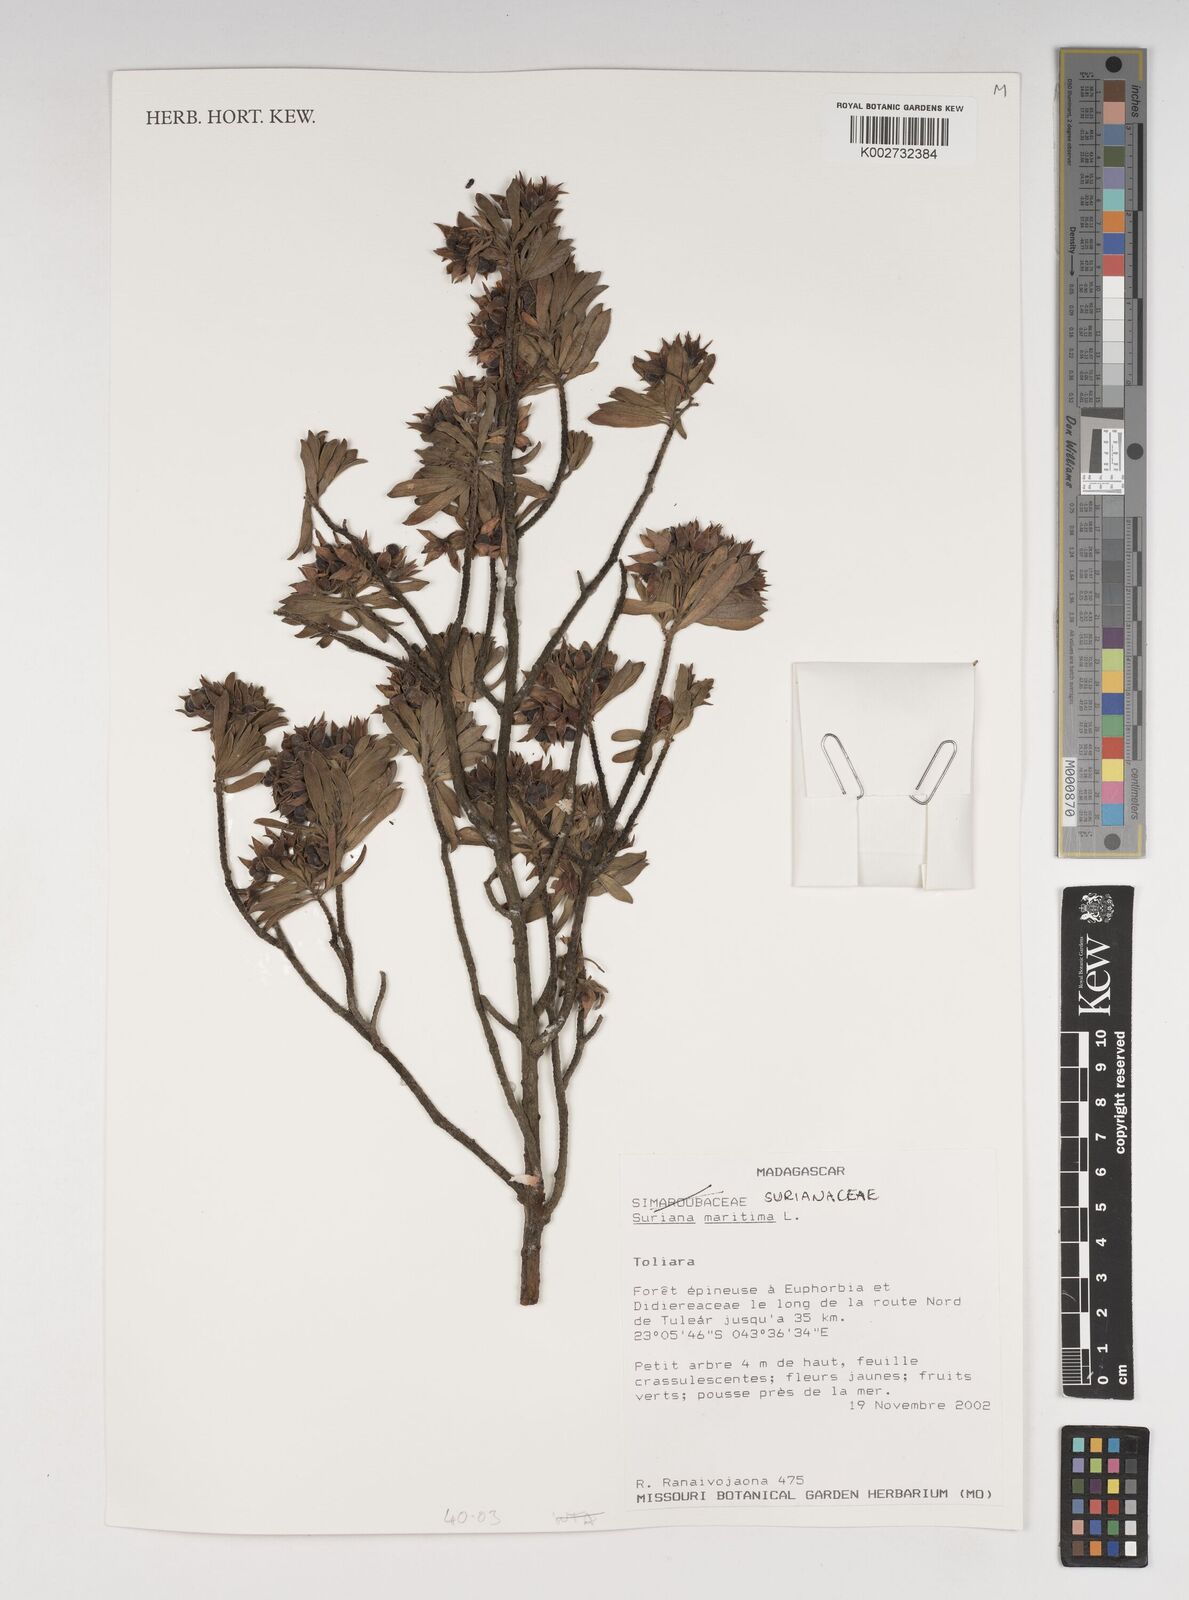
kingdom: Plantae
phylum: Tracheophyta
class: Magnoliopsida
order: Fabales
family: Surianaceae
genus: Suriana
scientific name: Suriana maritima
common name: Bay-cedar
